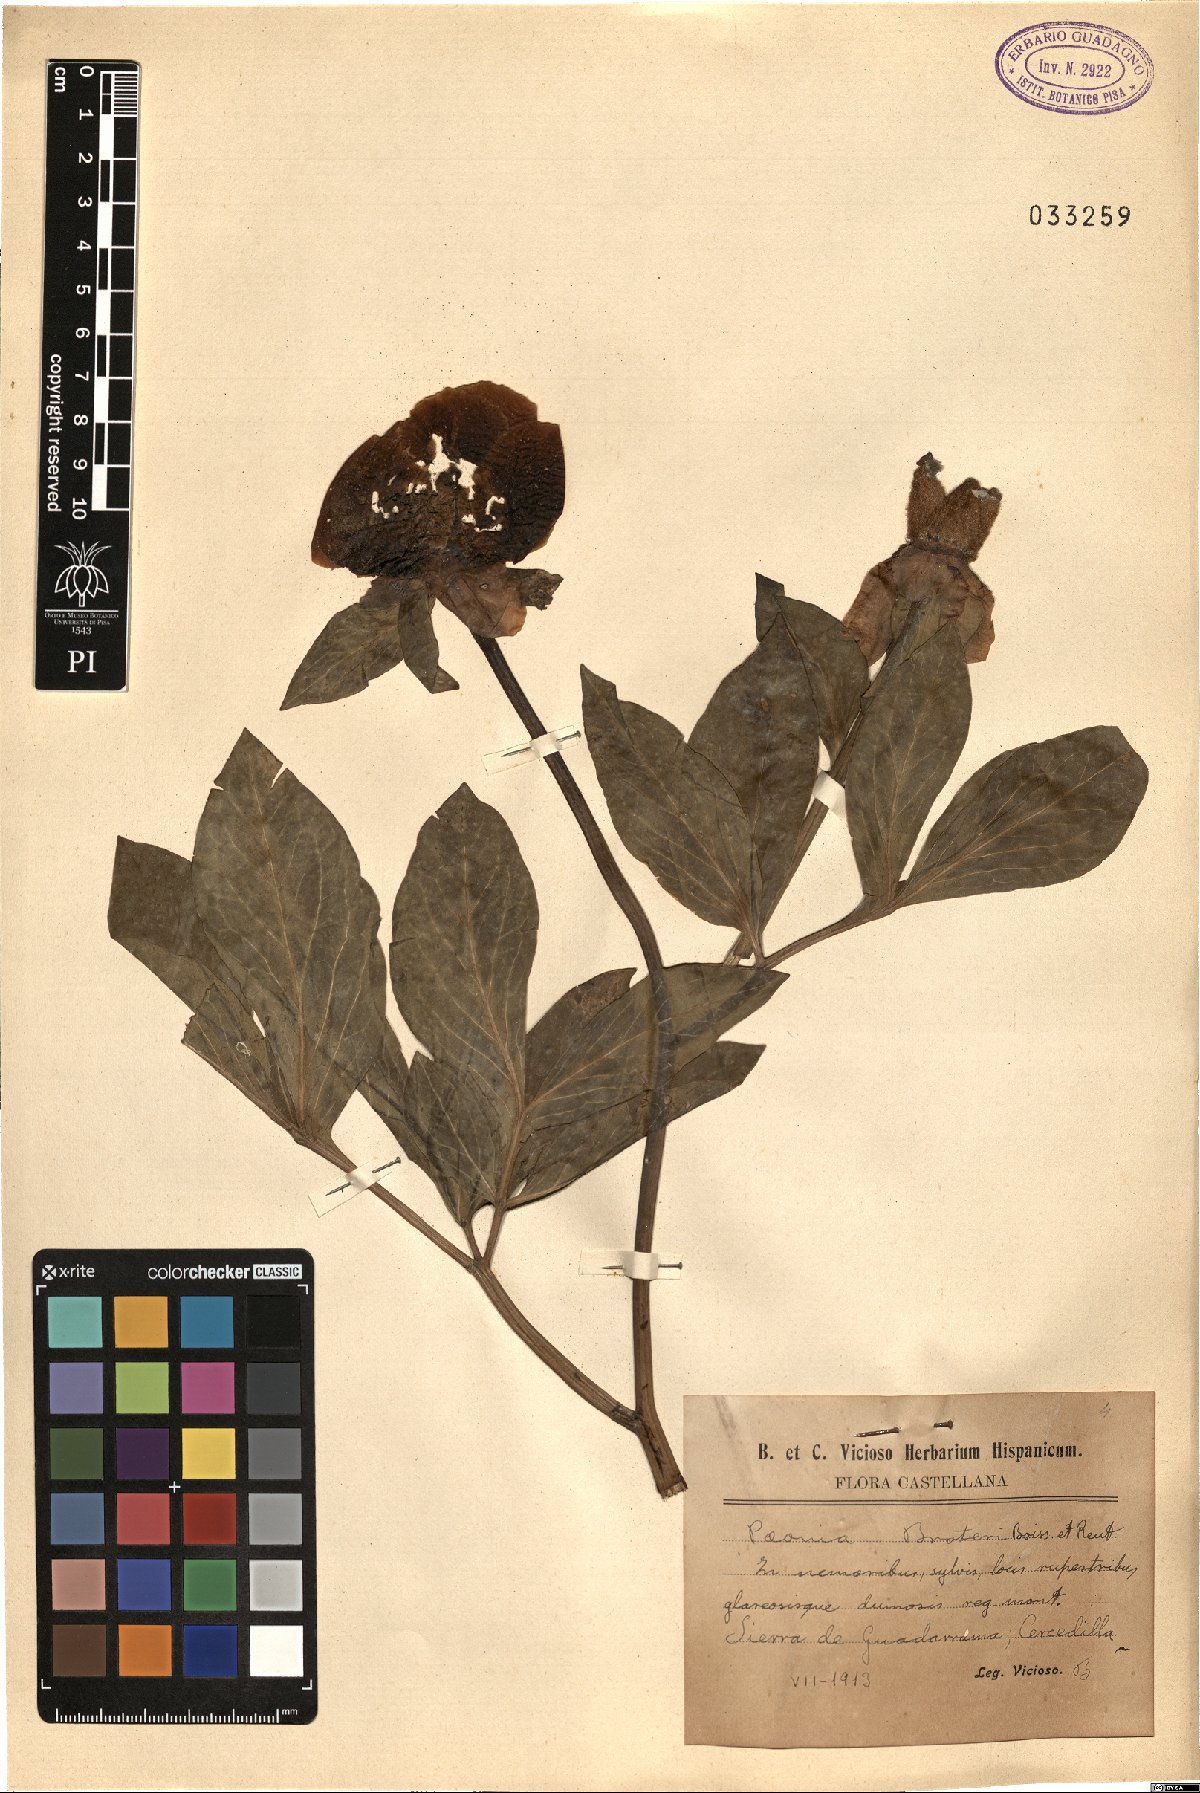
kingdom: Plantae
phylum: Tracheophyta
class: Magnoliopsida
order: Saxifragales
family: Paeoniaceae
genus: Paeonia
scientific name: Paeonia broteroi
